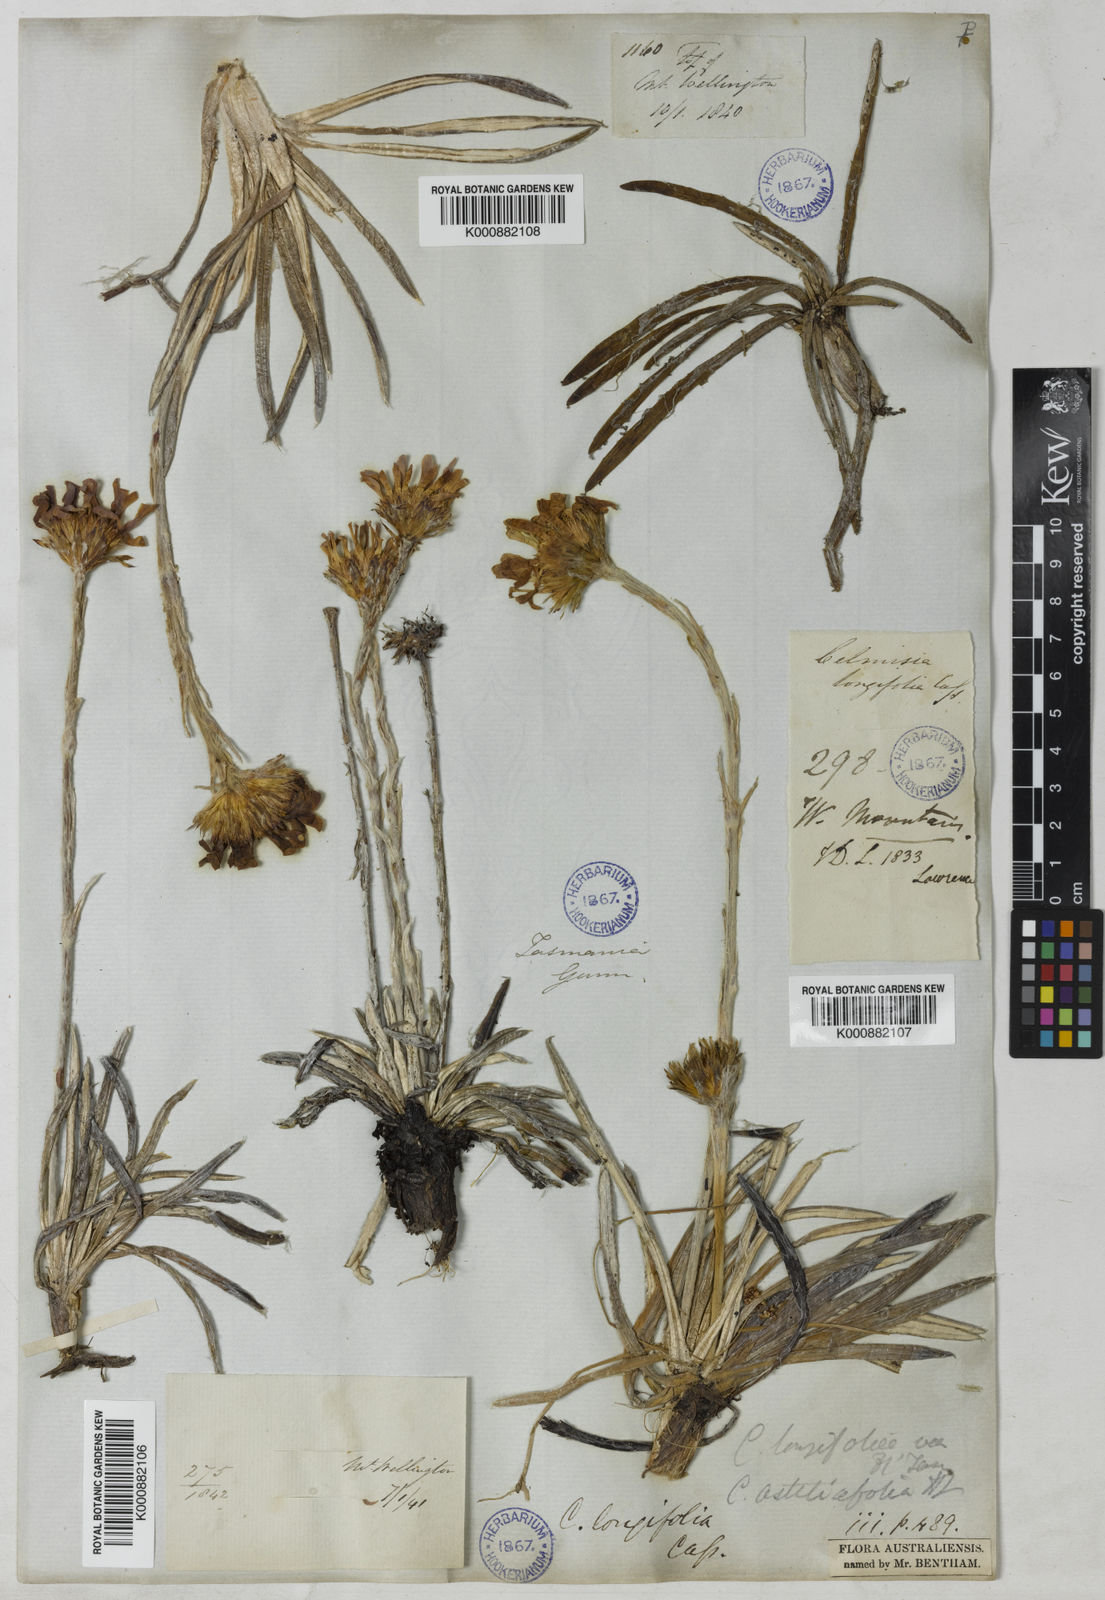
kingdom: Plantae
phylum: Tracheophyta
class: Magnoliopsida
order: Asterales
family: Asteraceae
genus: Celmisia
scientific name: Celmisia longifolia
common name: Silver snow daisy
